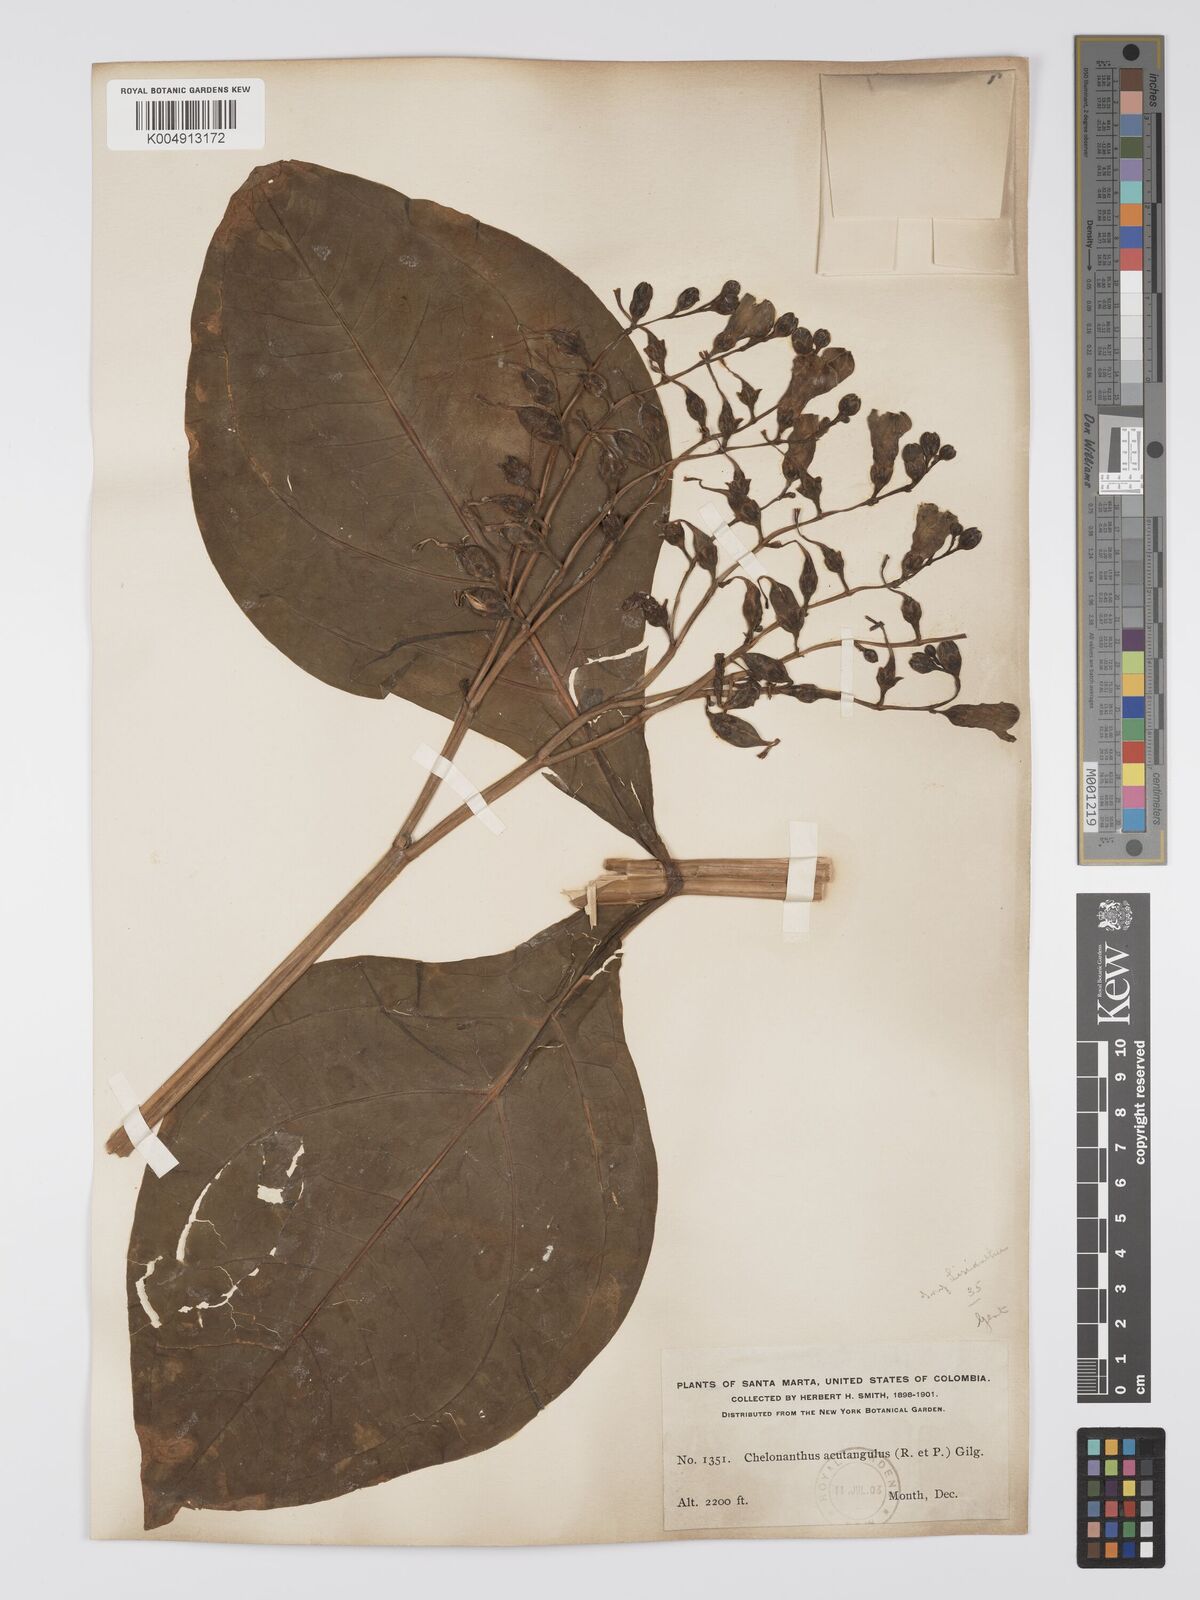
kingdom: Plantae
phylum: Tracheophyta
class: Magnoliopsida
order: Gentianales
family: Gentianaceae
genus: Chelonanthus
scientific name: Chelonanthus alatus
